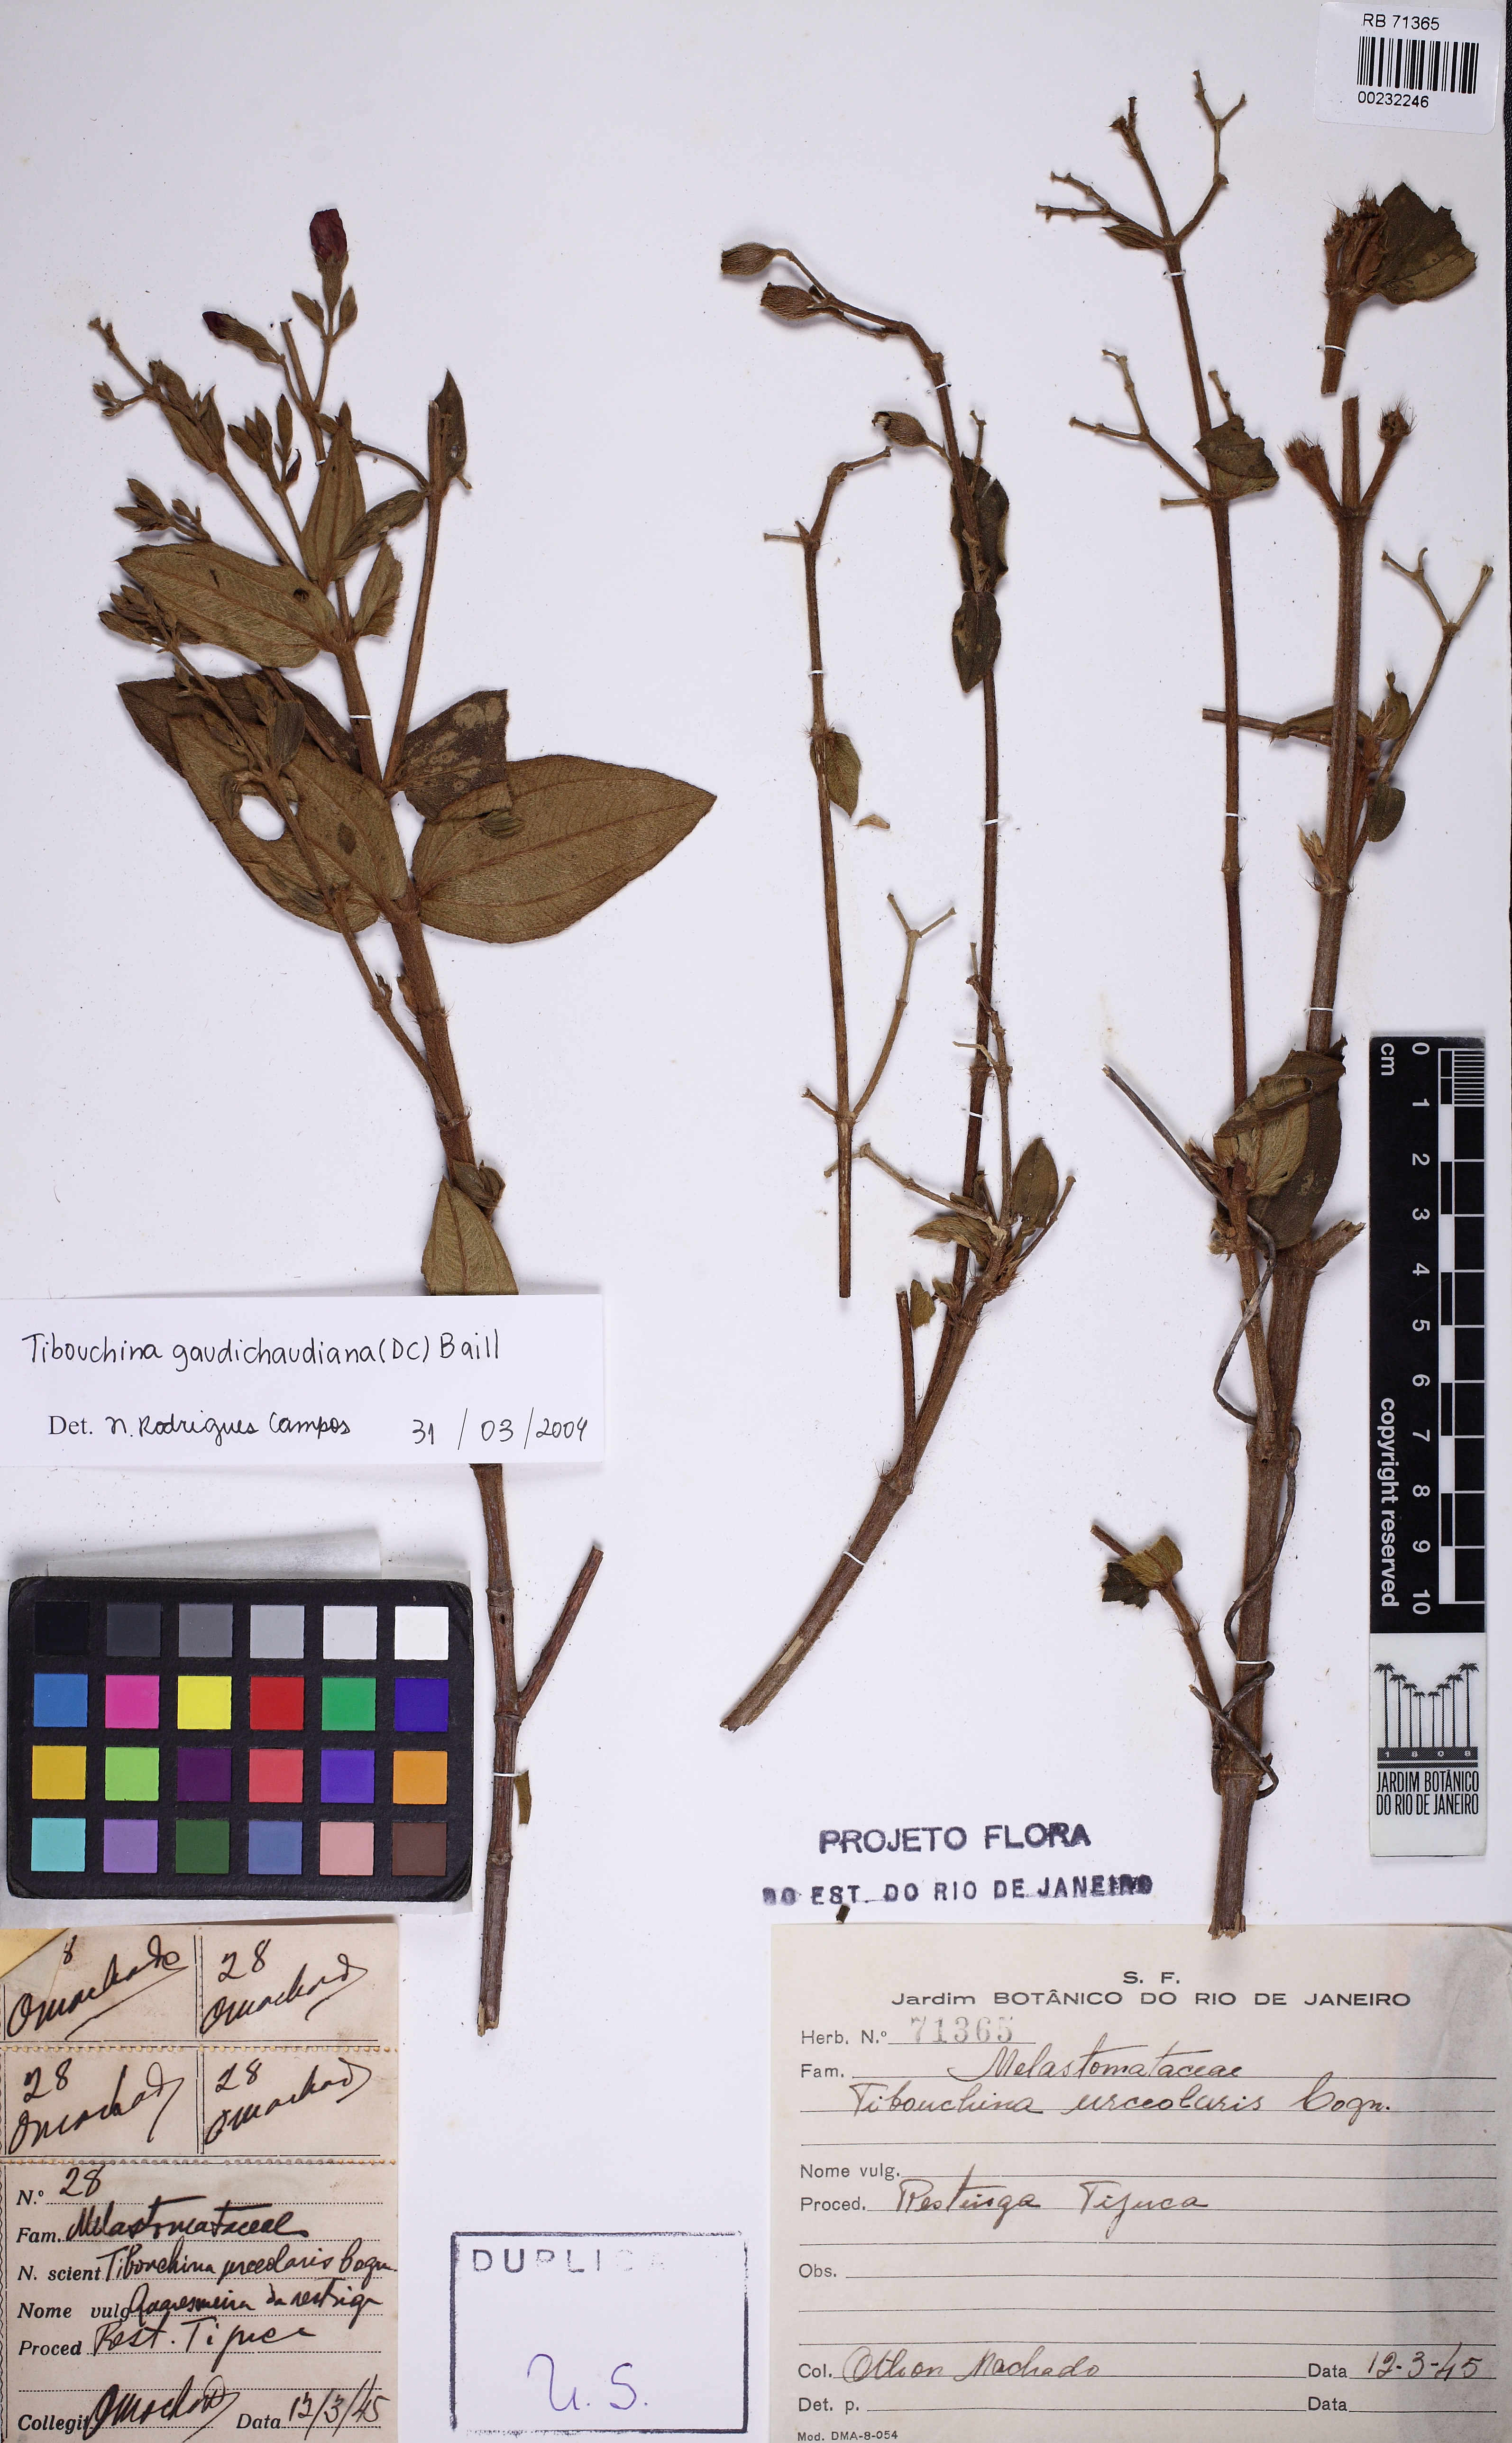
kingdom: Plantae
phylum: Tracheophyta
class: Magnoliopsida
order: Myrtales
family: Melastomataceae
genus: Pleroma
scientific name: Pleroma urceolare
